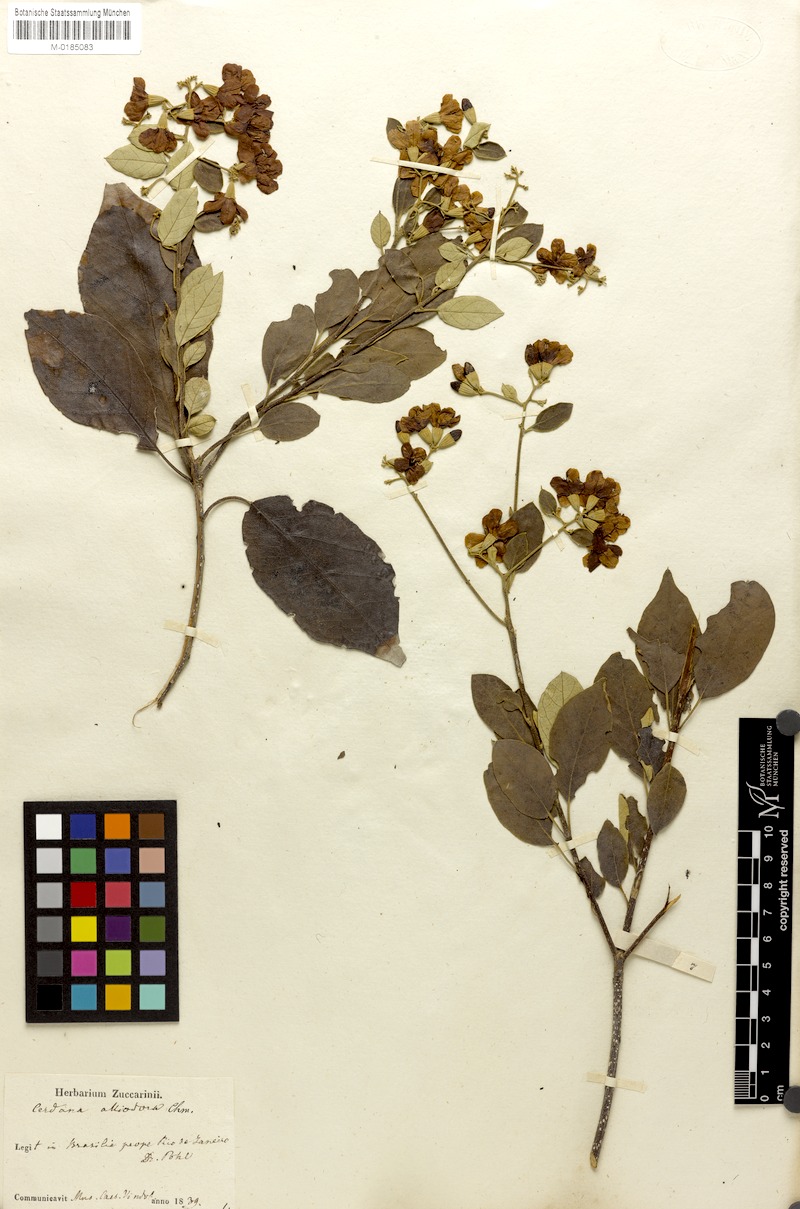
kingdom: Plantae
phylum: Tracheophyta
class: Magnoliopsida
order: Boraginales
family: Cordiaceae
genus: Cordia
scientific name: Cordia alliodora
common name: Spanish elm
